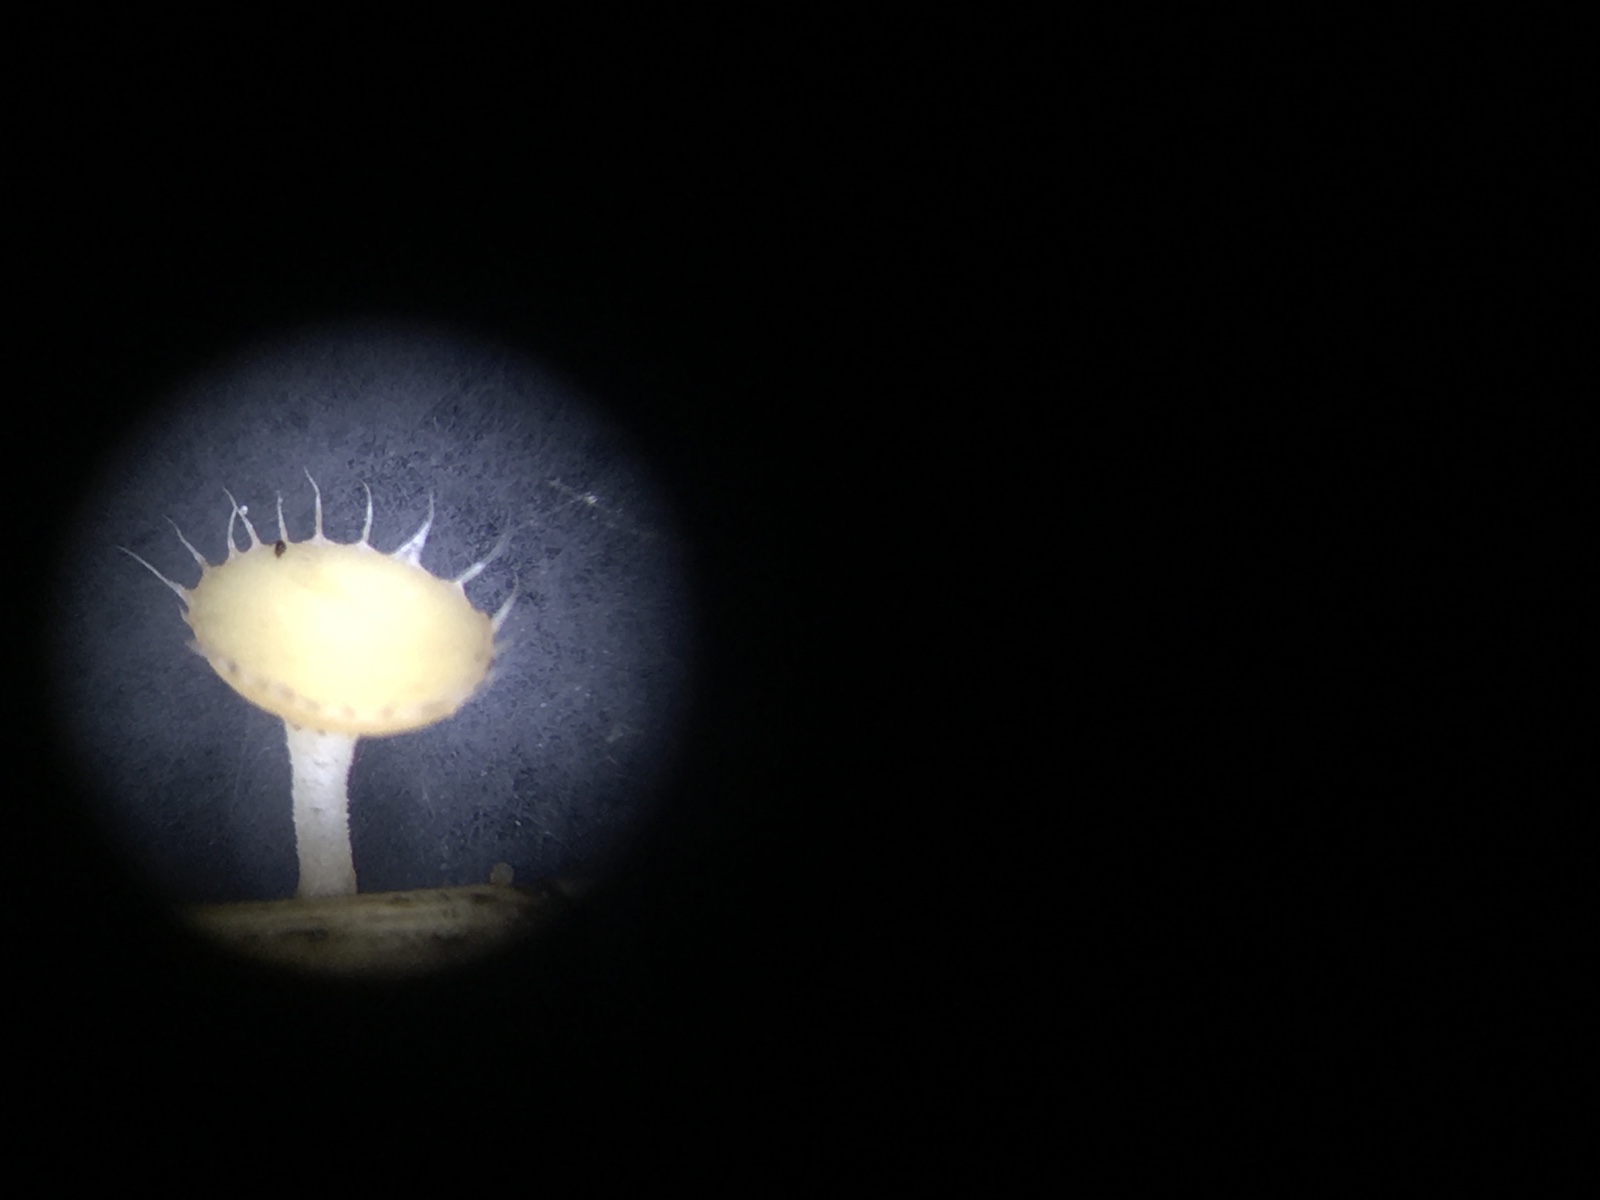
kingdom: Fungi
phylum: Ascomycota
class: Leotiomycetes
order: Helotiales
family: Helotiaceae
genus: Cyathicula
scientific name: Cyathicula coronata
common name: krone-stilkskive
